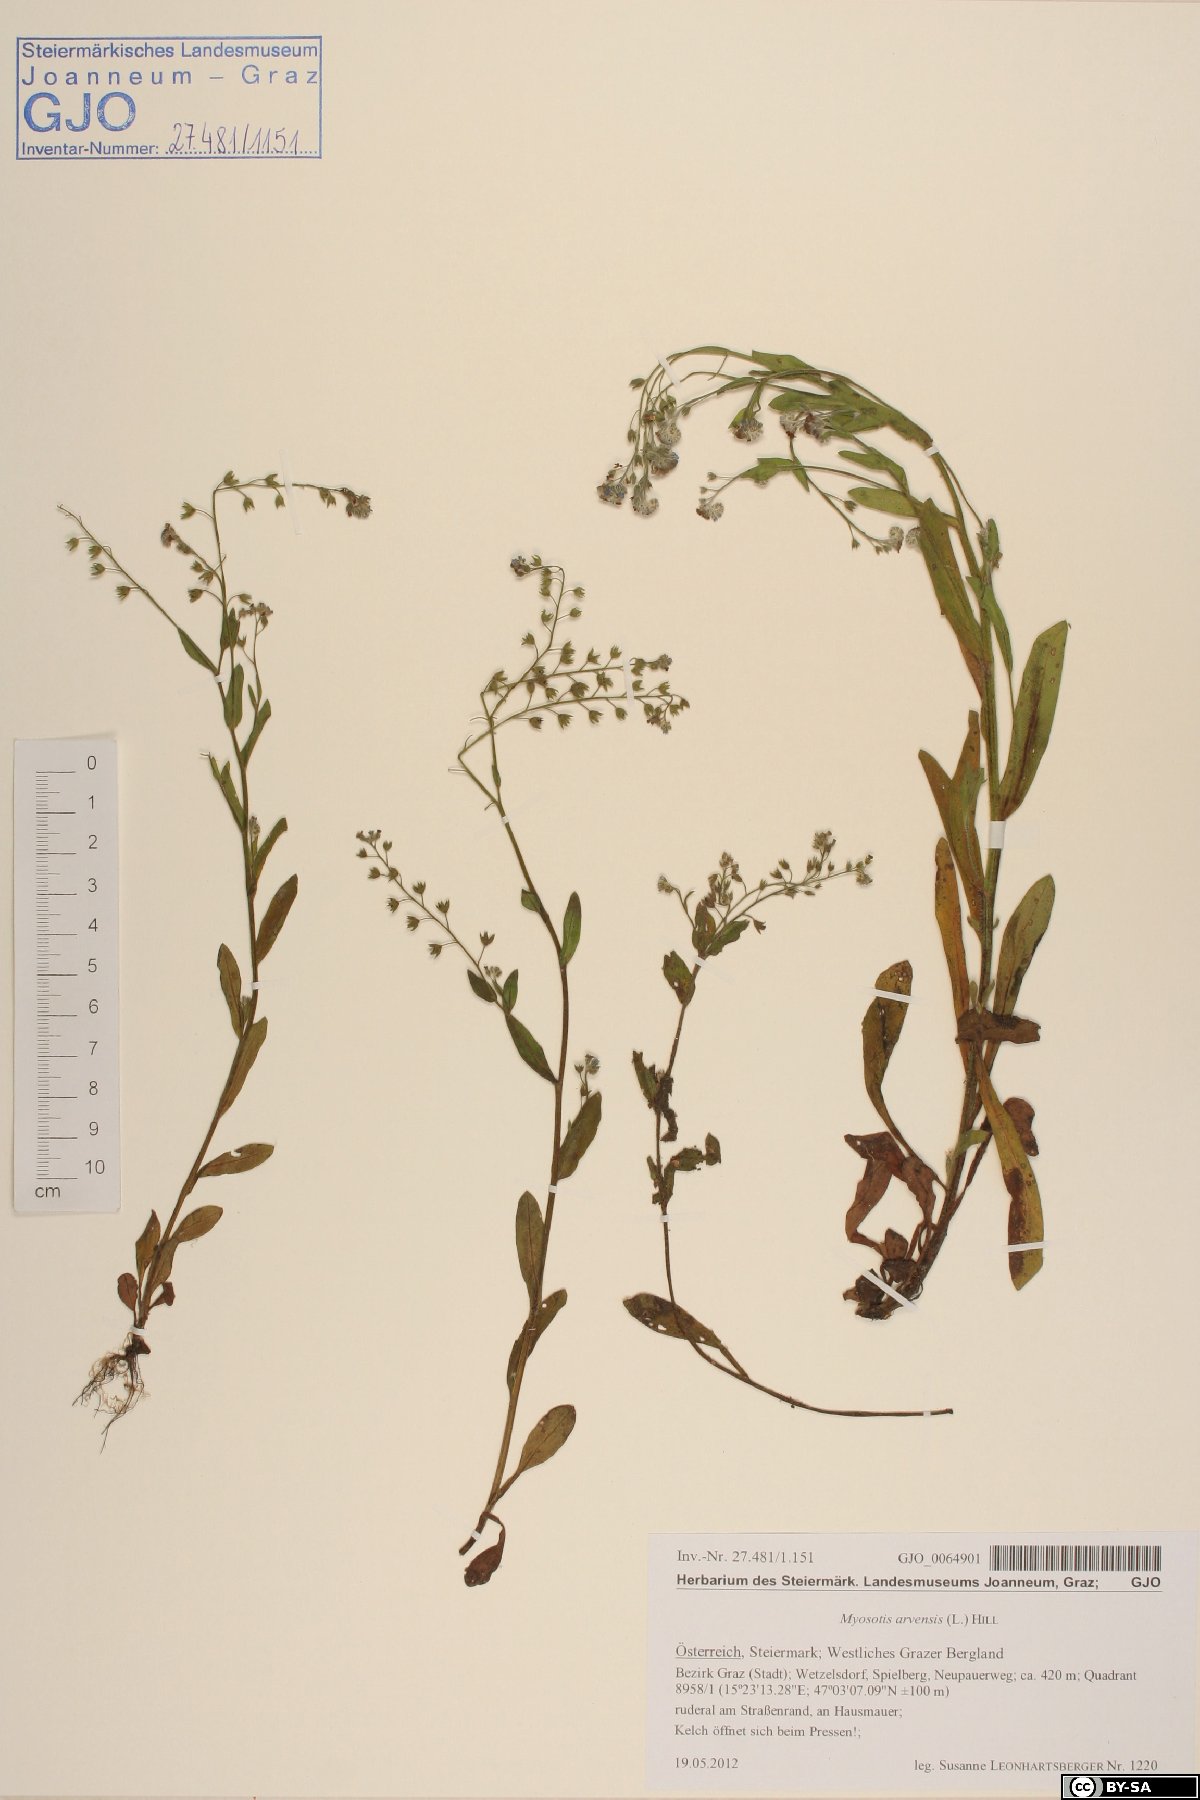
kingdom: Plantae
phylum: Tracheophyta
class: Magnoliopsida
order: Boraginales
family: Boraginaceae
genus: Myosotis
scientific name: Myosotis arvensis
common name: Field forget-me-not
